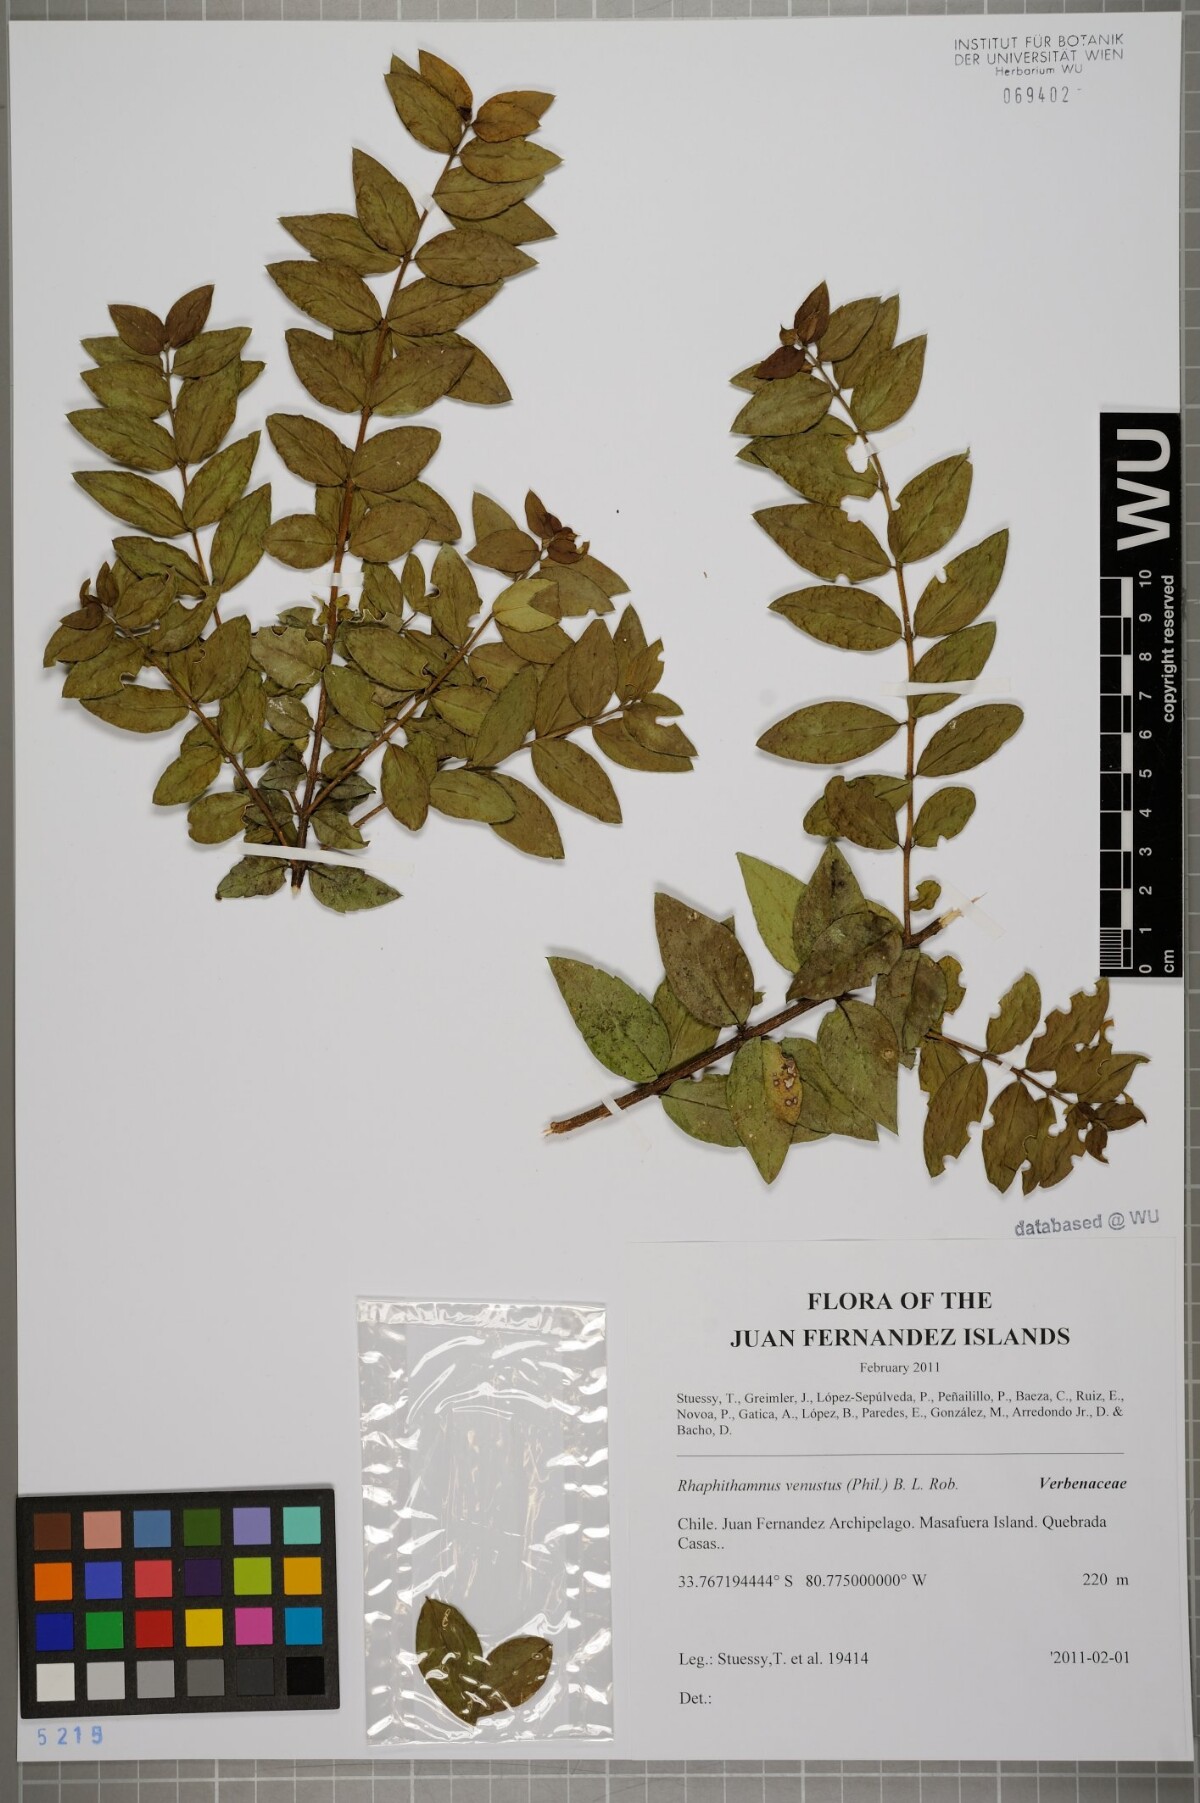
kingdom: Plantae
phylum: Tracheophyta
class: Magnoliopsida
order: Lamiales
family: Verbenaceae
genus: Rhaphithamnus
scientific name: Rhaphithamnus venustus
